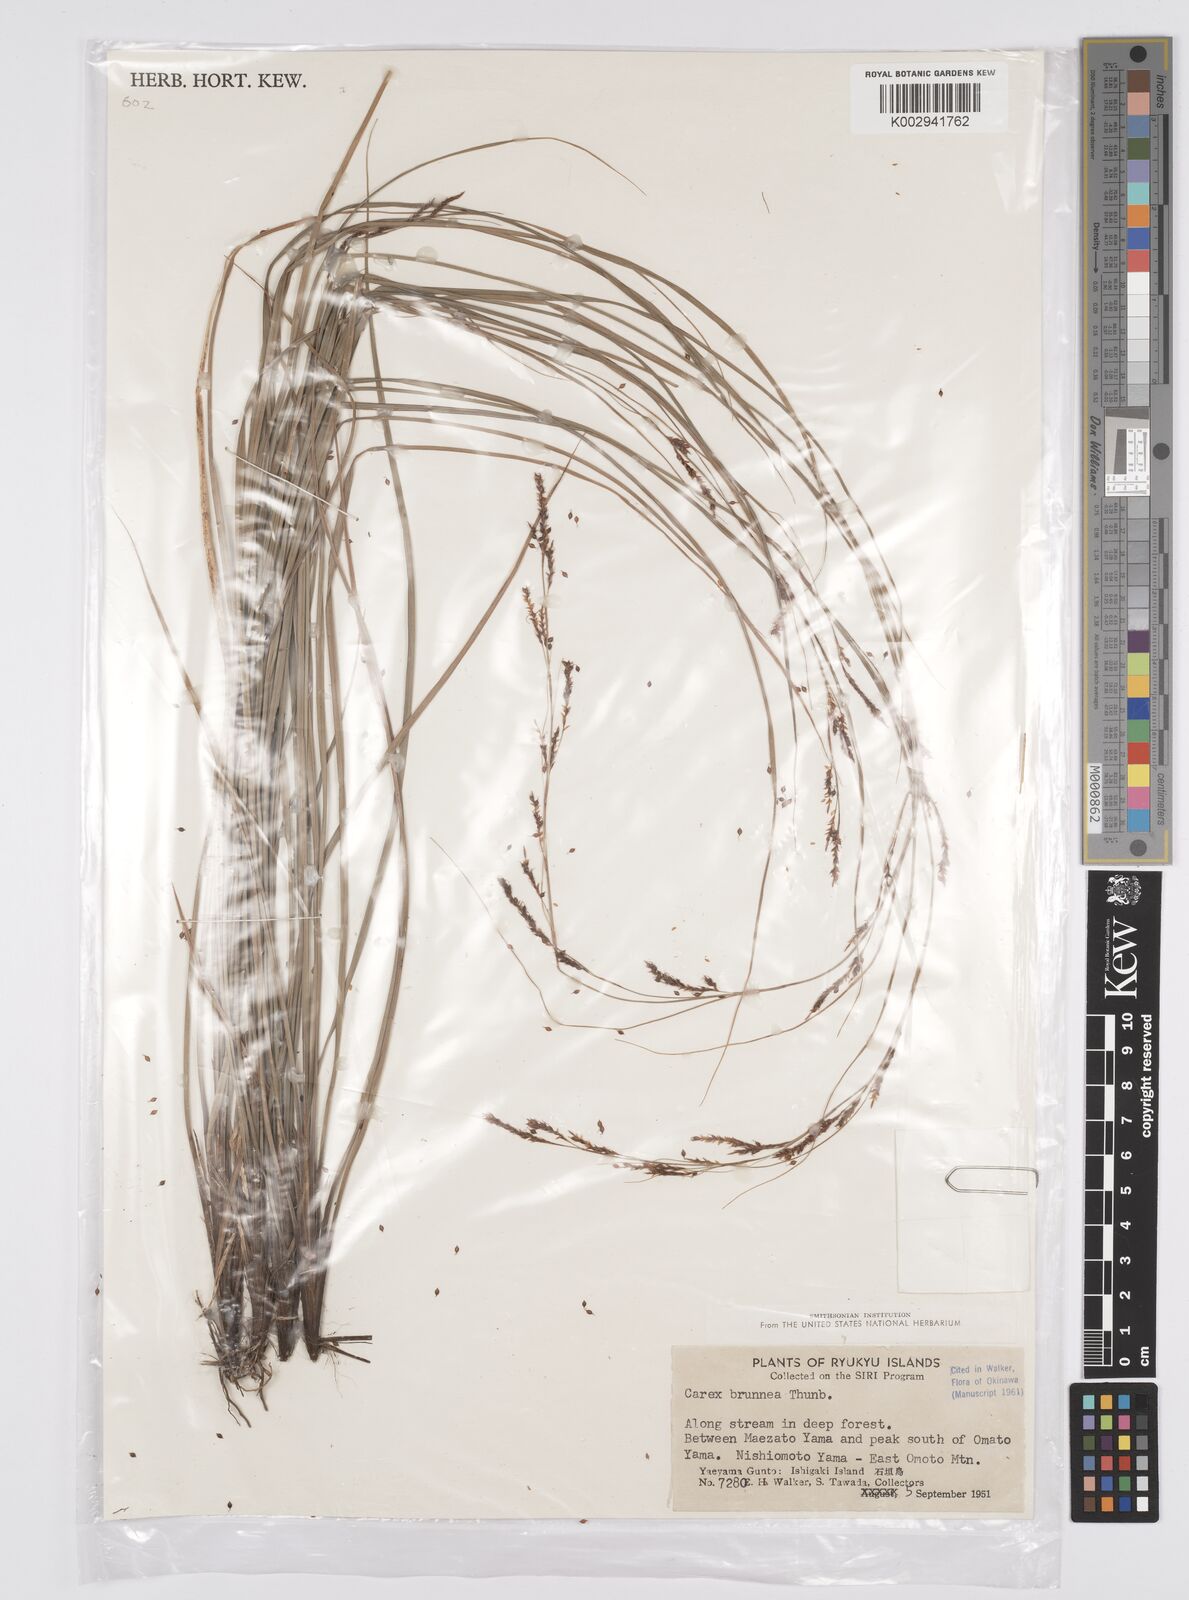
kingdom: Plantae
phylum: Tracheophyta
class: Liliopsida
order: Poales
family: Cyperaceae
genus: Carex
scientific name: Carex brunnea
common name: Greater brown sedge
